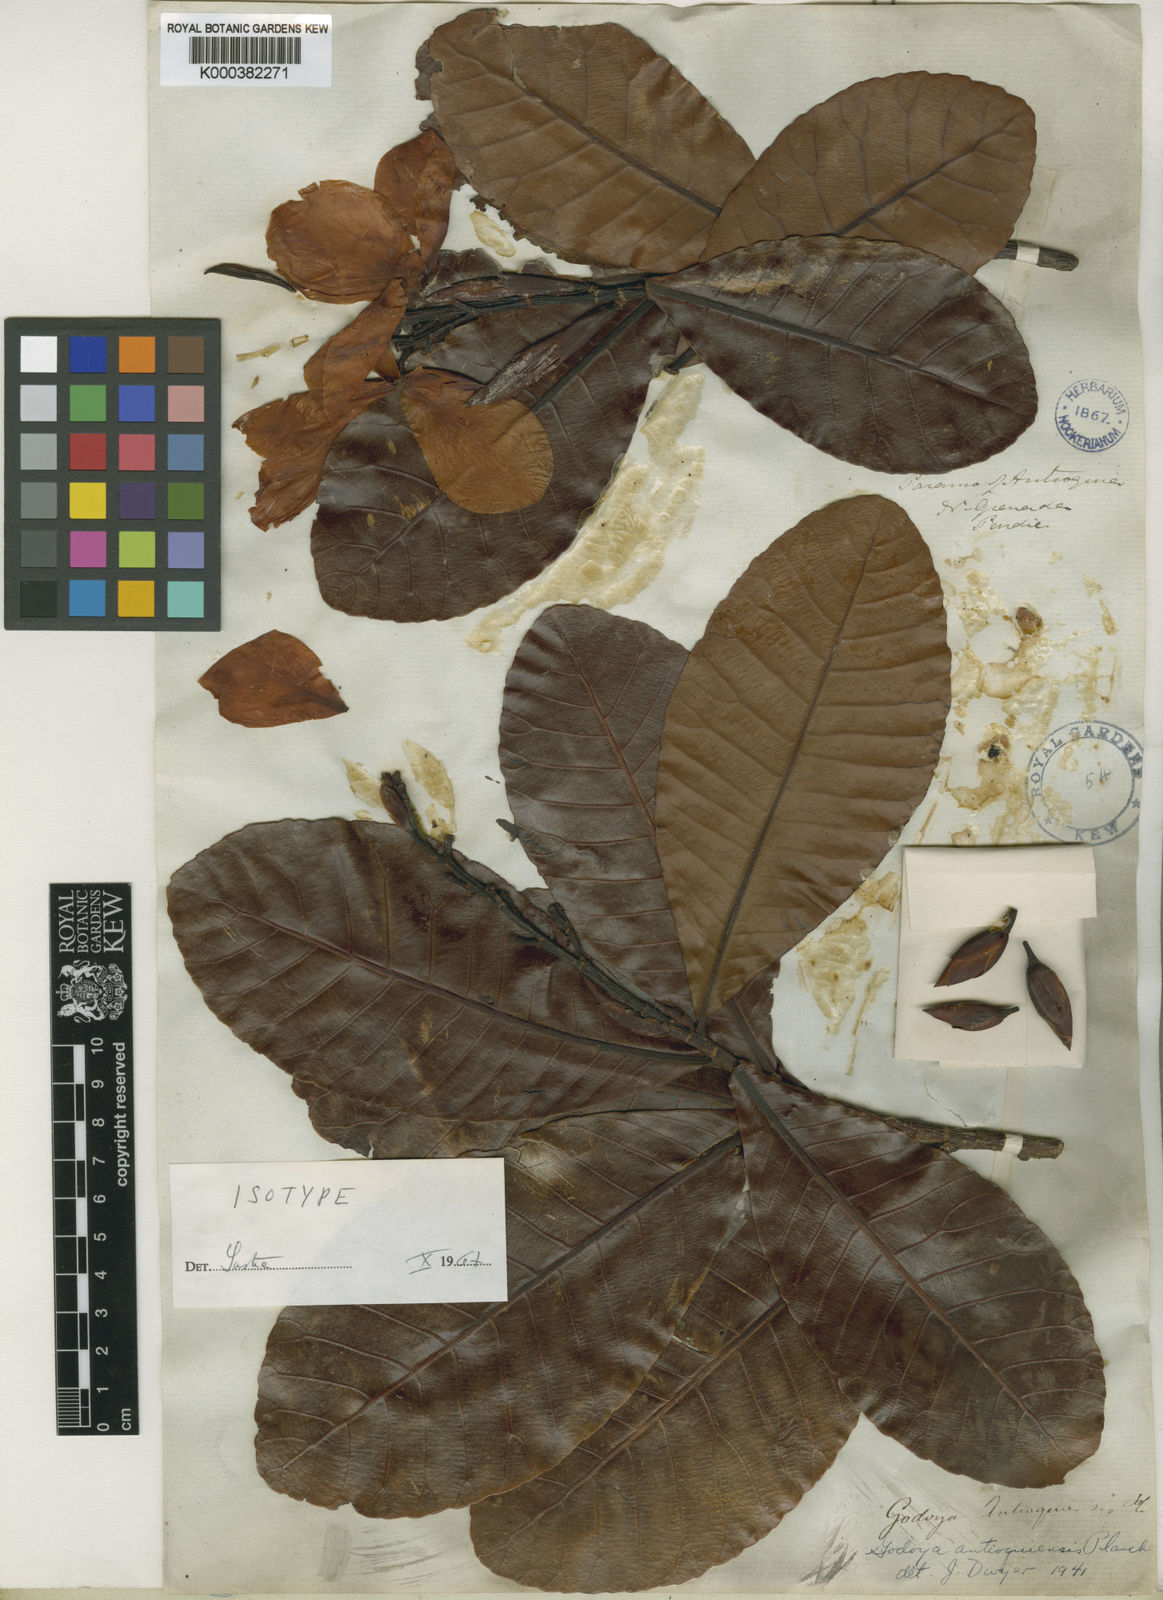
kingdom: Plantae
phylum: Tracheophyta
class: Magnoliopsida
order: Malpighiales
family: Ochnaceae
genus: Godoya
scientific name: Godoya antioquiensis
